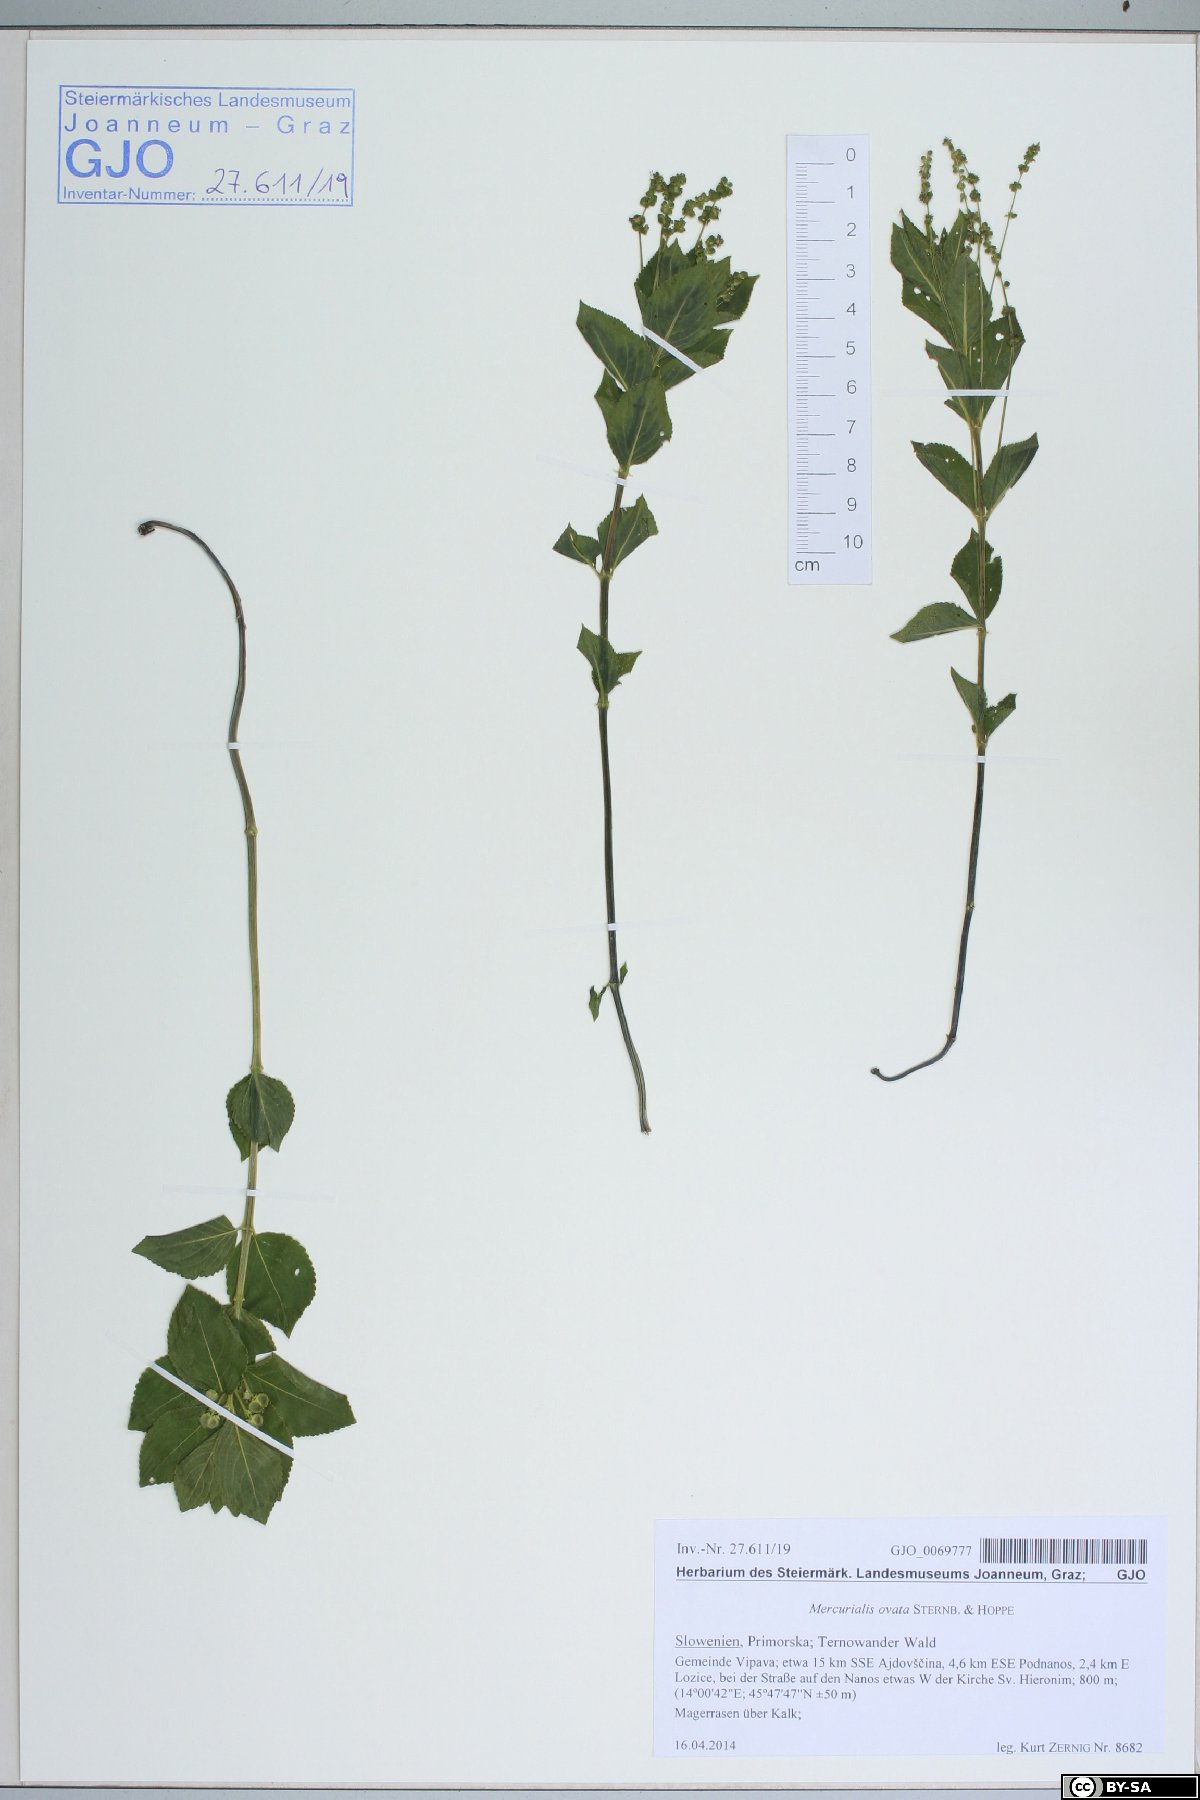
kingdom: Plantae
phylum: Tracheophyta
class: Magnoliopsida
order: Malpighiales
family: Euphorbiaceae
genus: Mercurialis
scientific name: Mercurialis ovata
